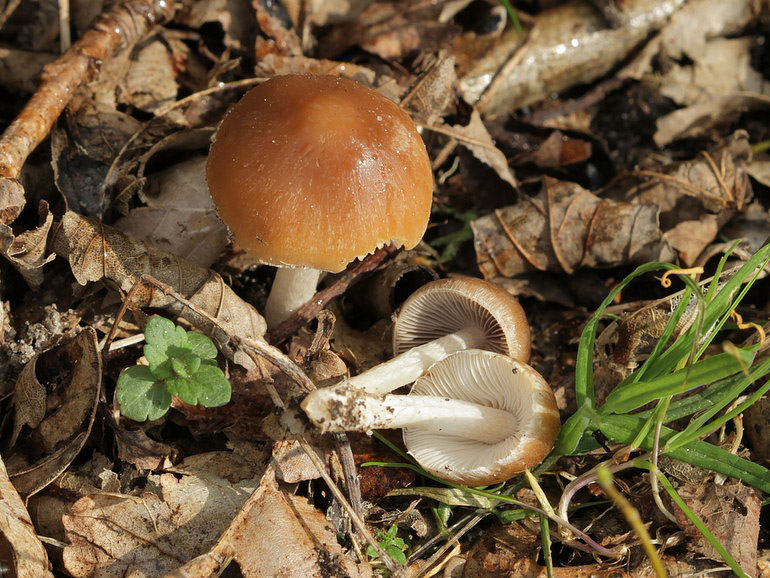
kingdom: Fungi
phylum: Basidiomycota
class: Agaricomycetes
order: Agaricales
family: Psathyrellaceae
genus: Psathyrella
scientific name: Psathyrella spadiceogrisea
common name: gråbrun mørkhat
